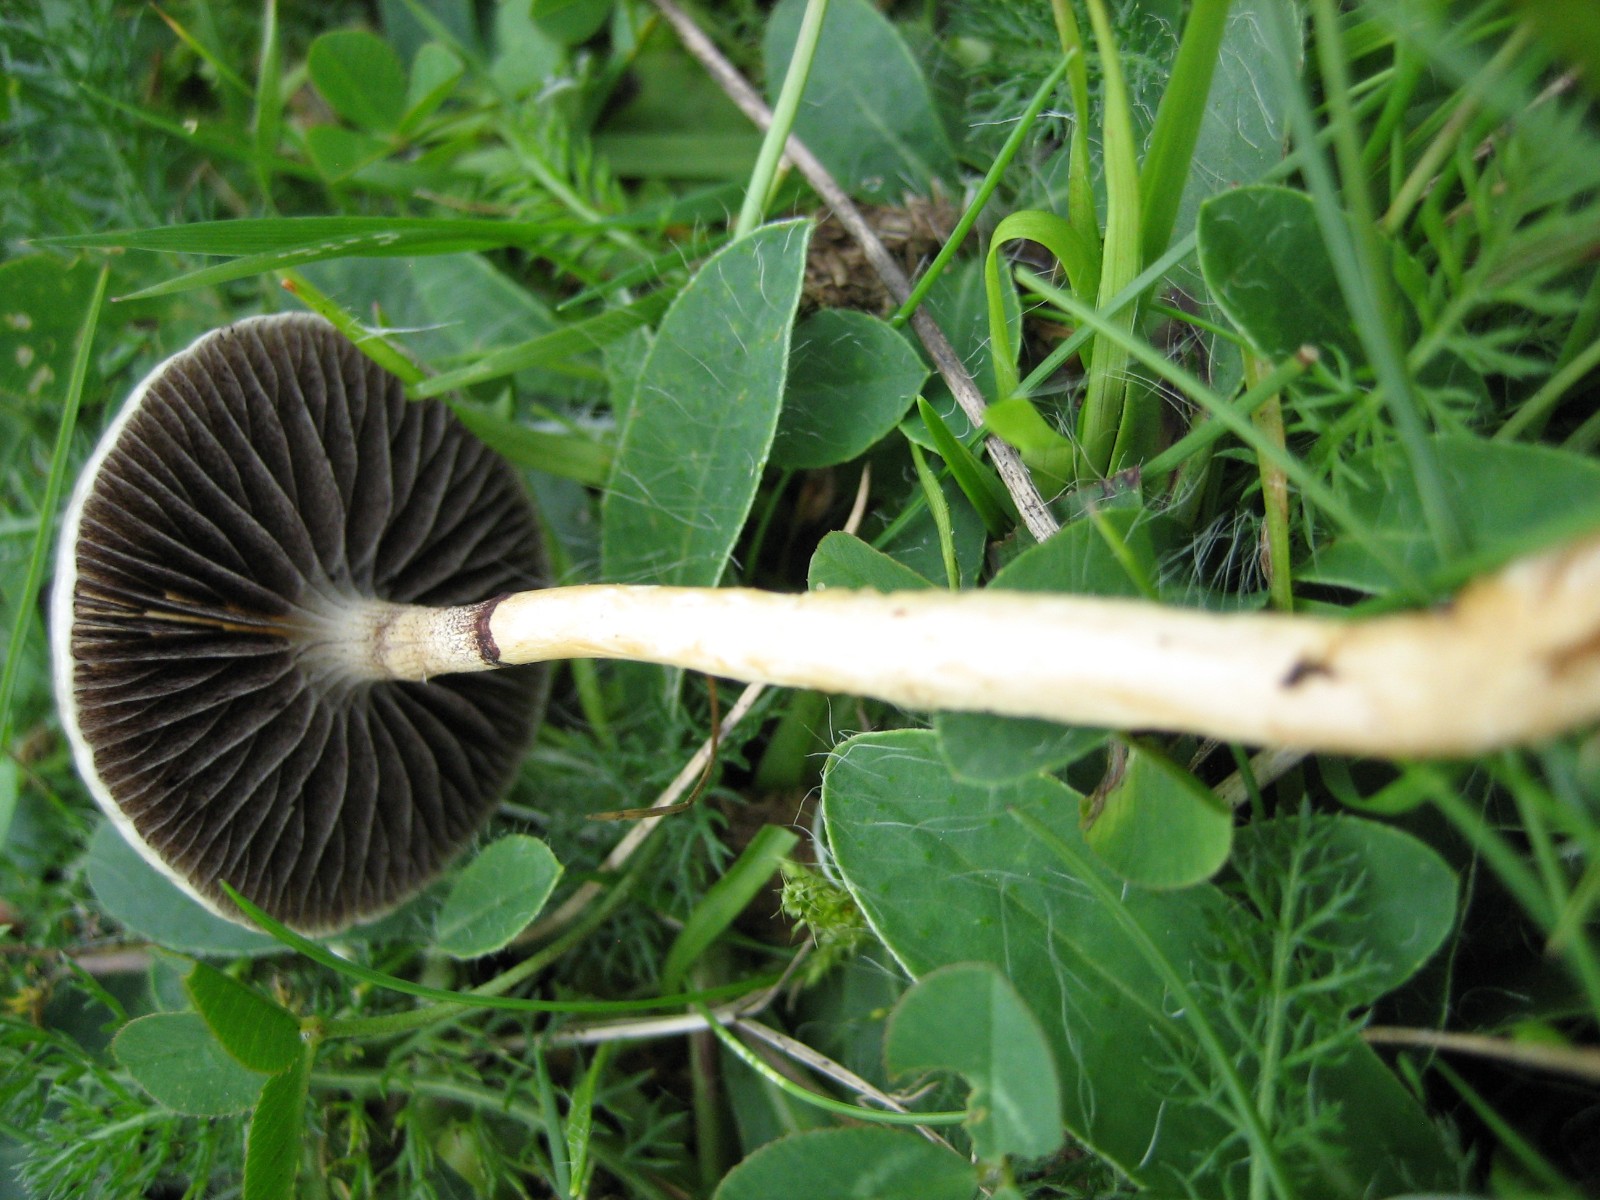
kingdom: Fungi
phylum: Basidiomycota
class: Agaricomycetes
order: Agaricales
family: Strophariaceae
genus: Protostropharia
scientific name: Protostropharia semiglobata
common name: halvkugleformet bredblad
